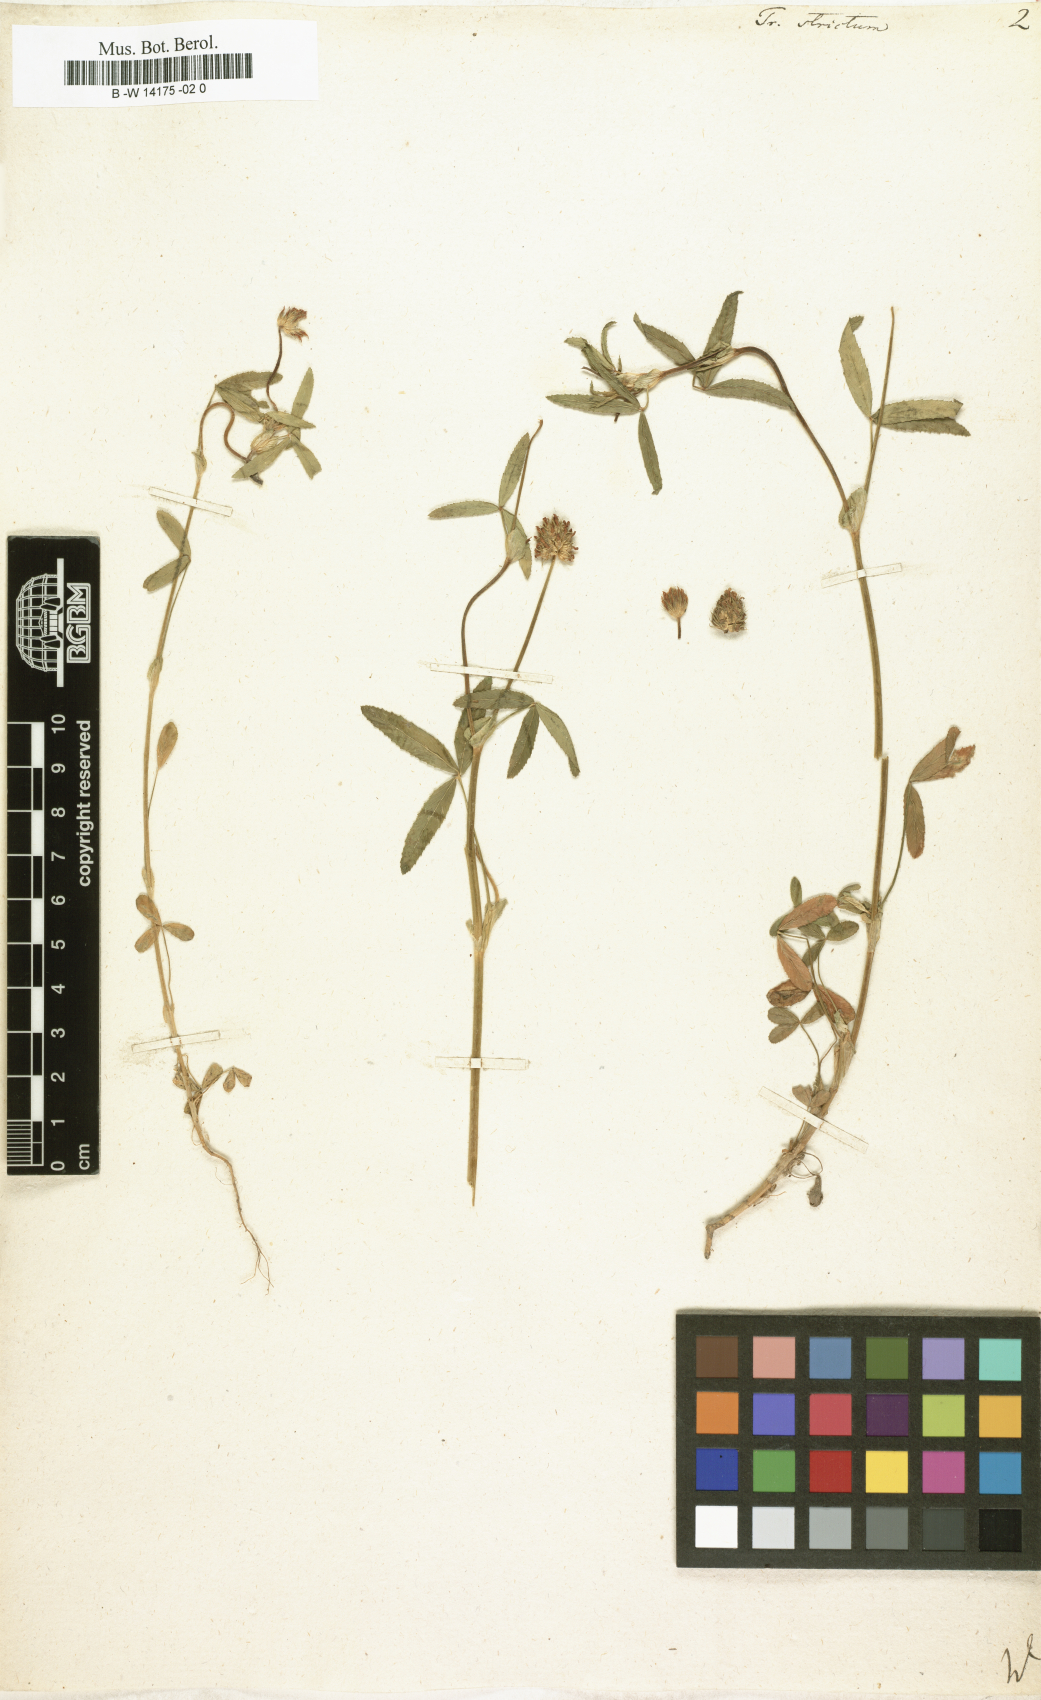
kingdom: Plantae
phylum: Tracheophyta
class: Magnoliopsida
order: Fabales
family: Fabaceae
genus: Trifolium
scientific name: Trifolium strictum
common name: Upright clover
